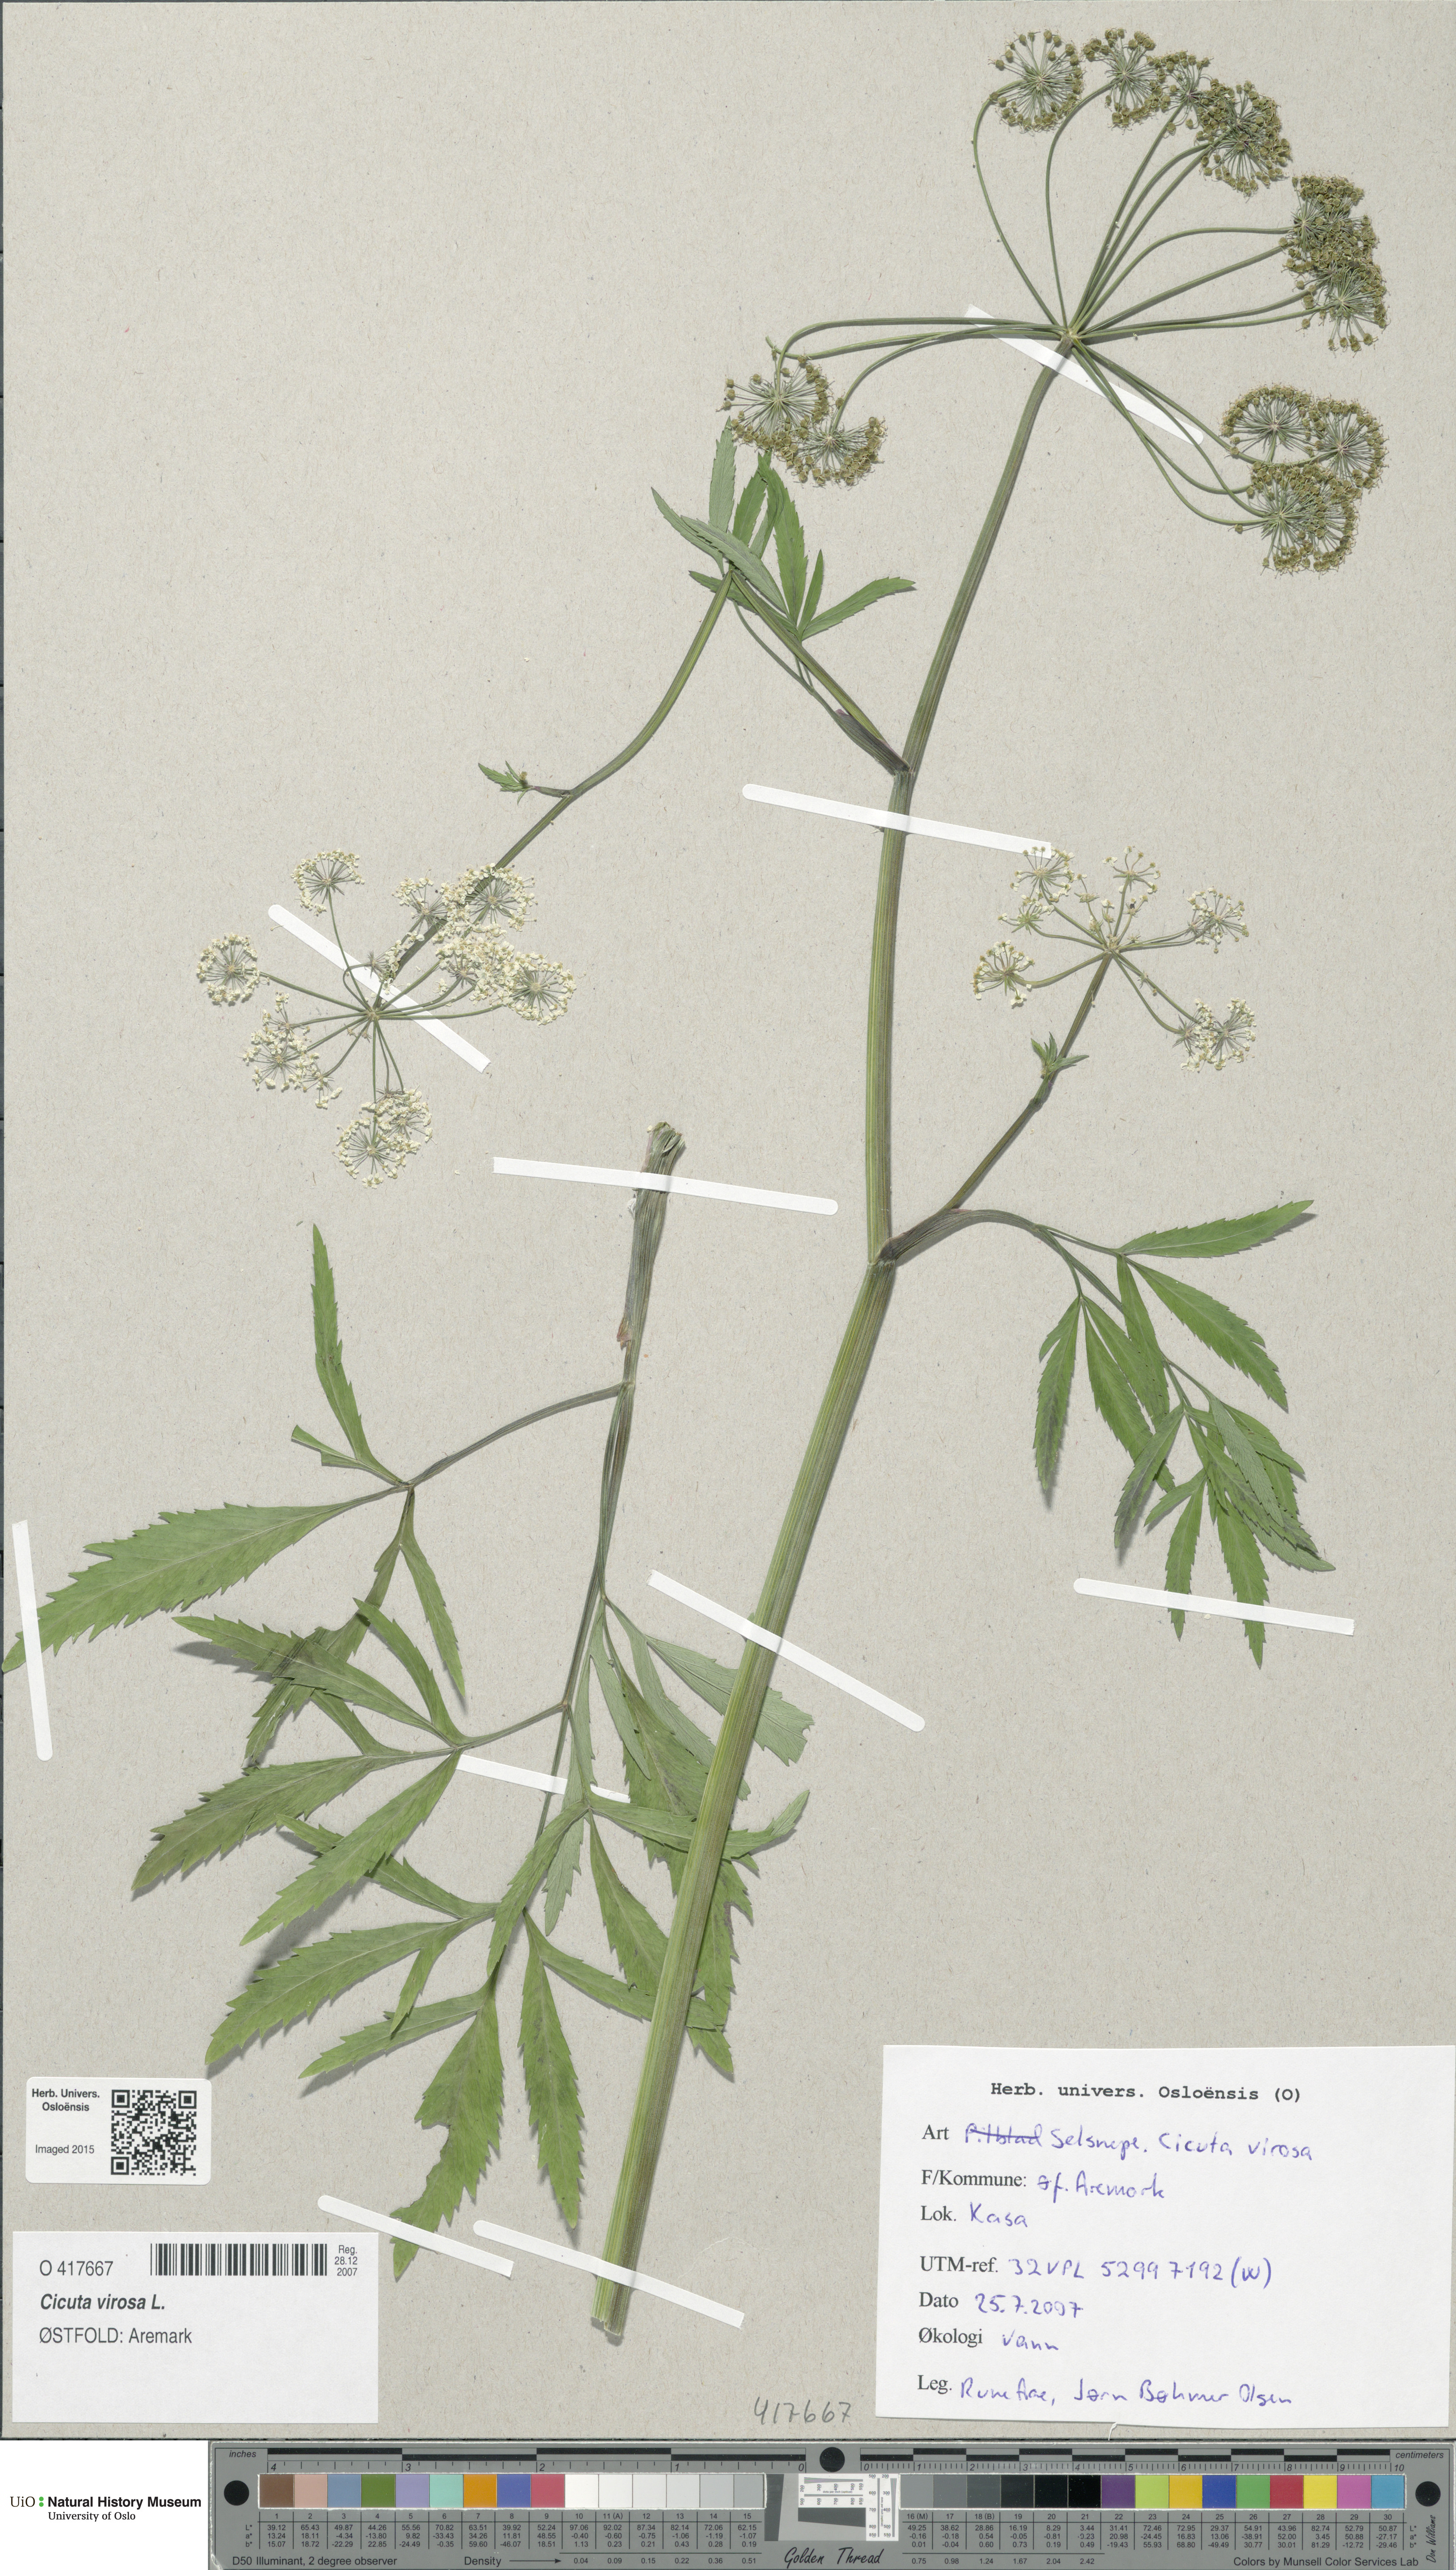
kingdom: Plantae
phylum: Tracheophyta
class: Magnoliopsida
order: Apiales
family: Apiaceae
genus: Cicuta
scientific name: Cicuta virosa
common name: Cowbane
